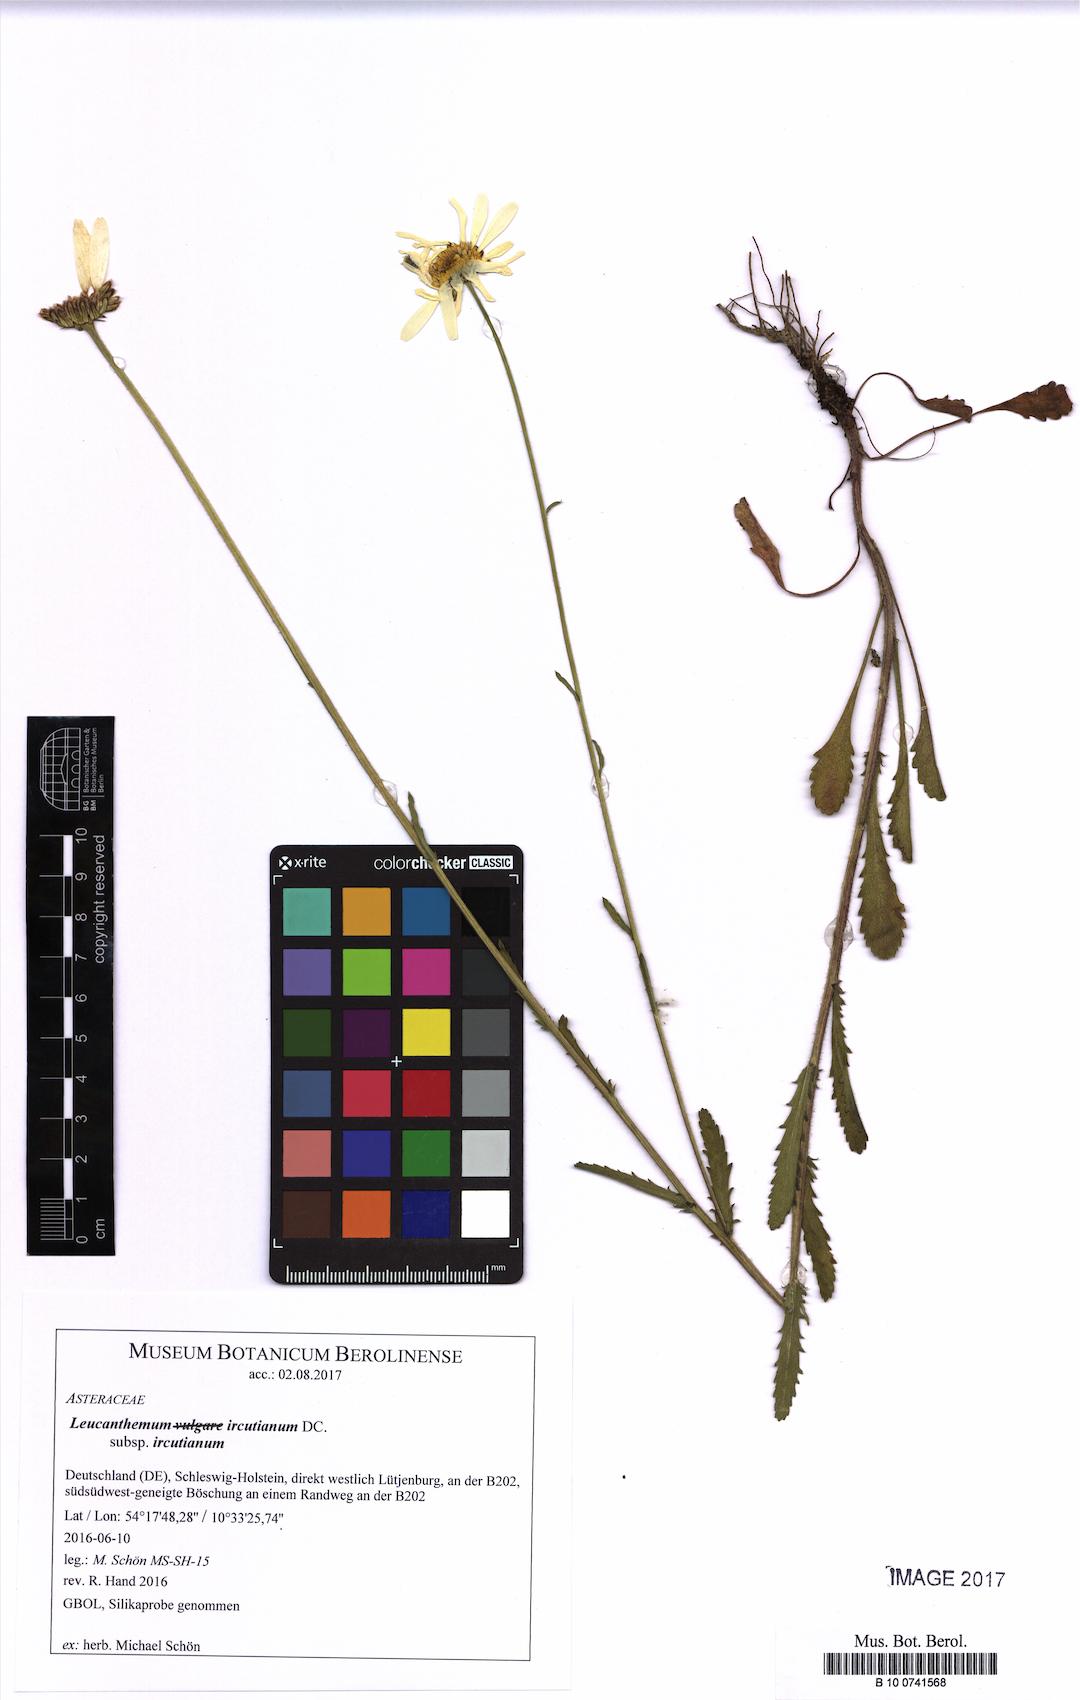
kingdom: Plantae
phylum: Tracheophyta
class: Magnoliopsida
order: Asterales
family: Asteraceae
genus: Leucanthemum
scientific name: Leucanthemum ircutianum
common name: Daisy
